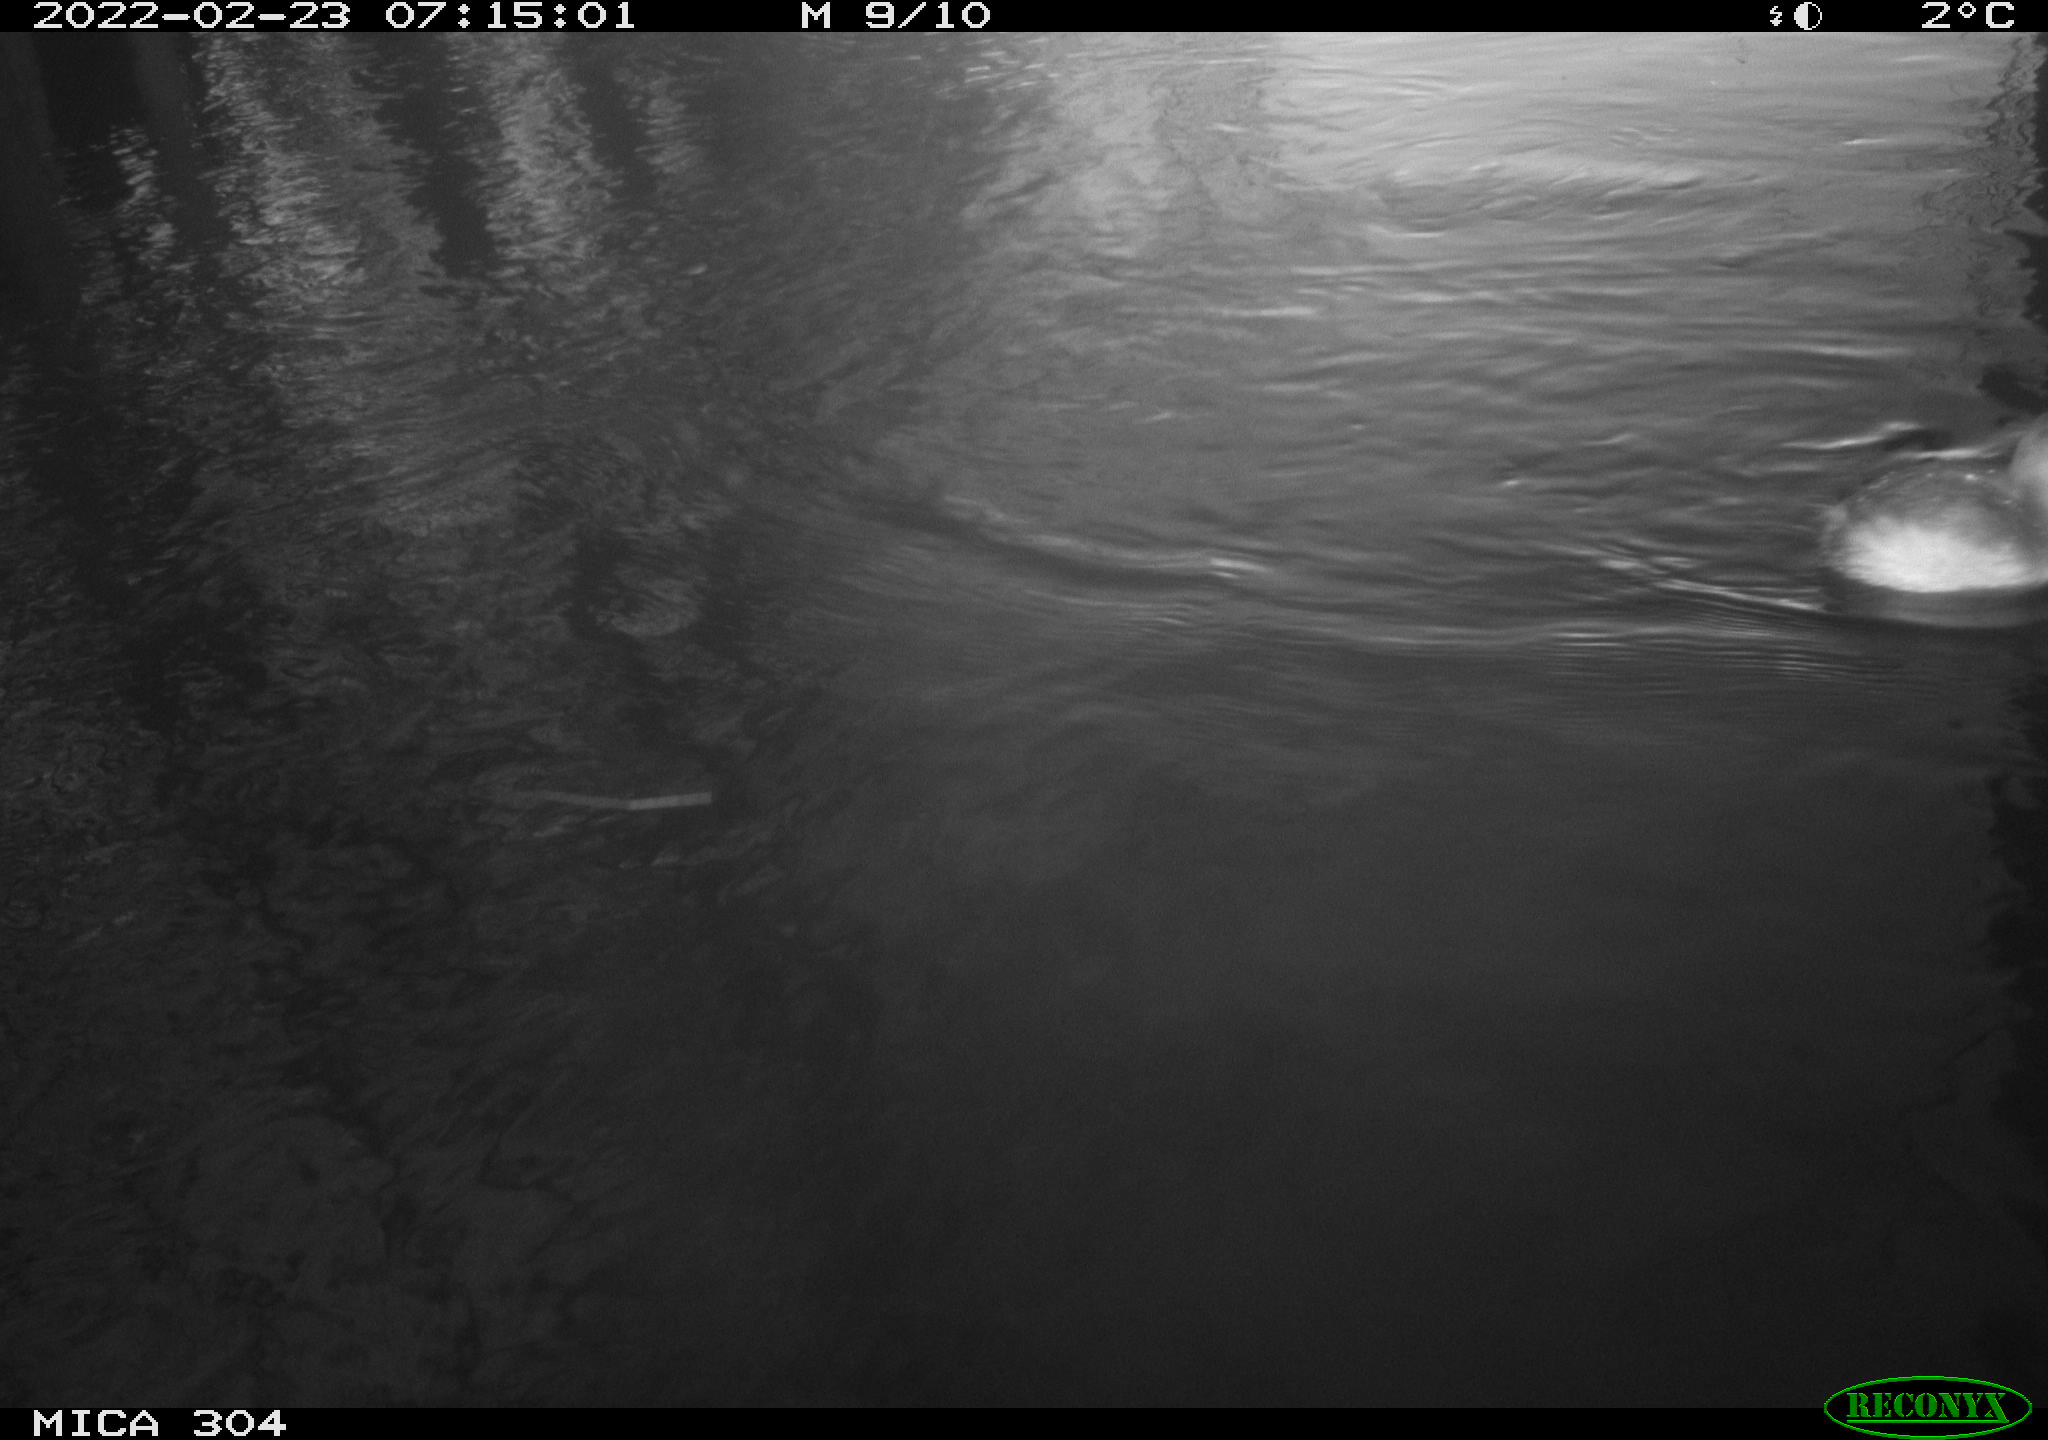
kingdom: Animalia
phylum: Chordata
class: Aves
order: Podicipediformes
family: Podicipedidae
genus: Tachybaptus
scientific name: Tachybaptus ruficollis
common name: Little grebe
